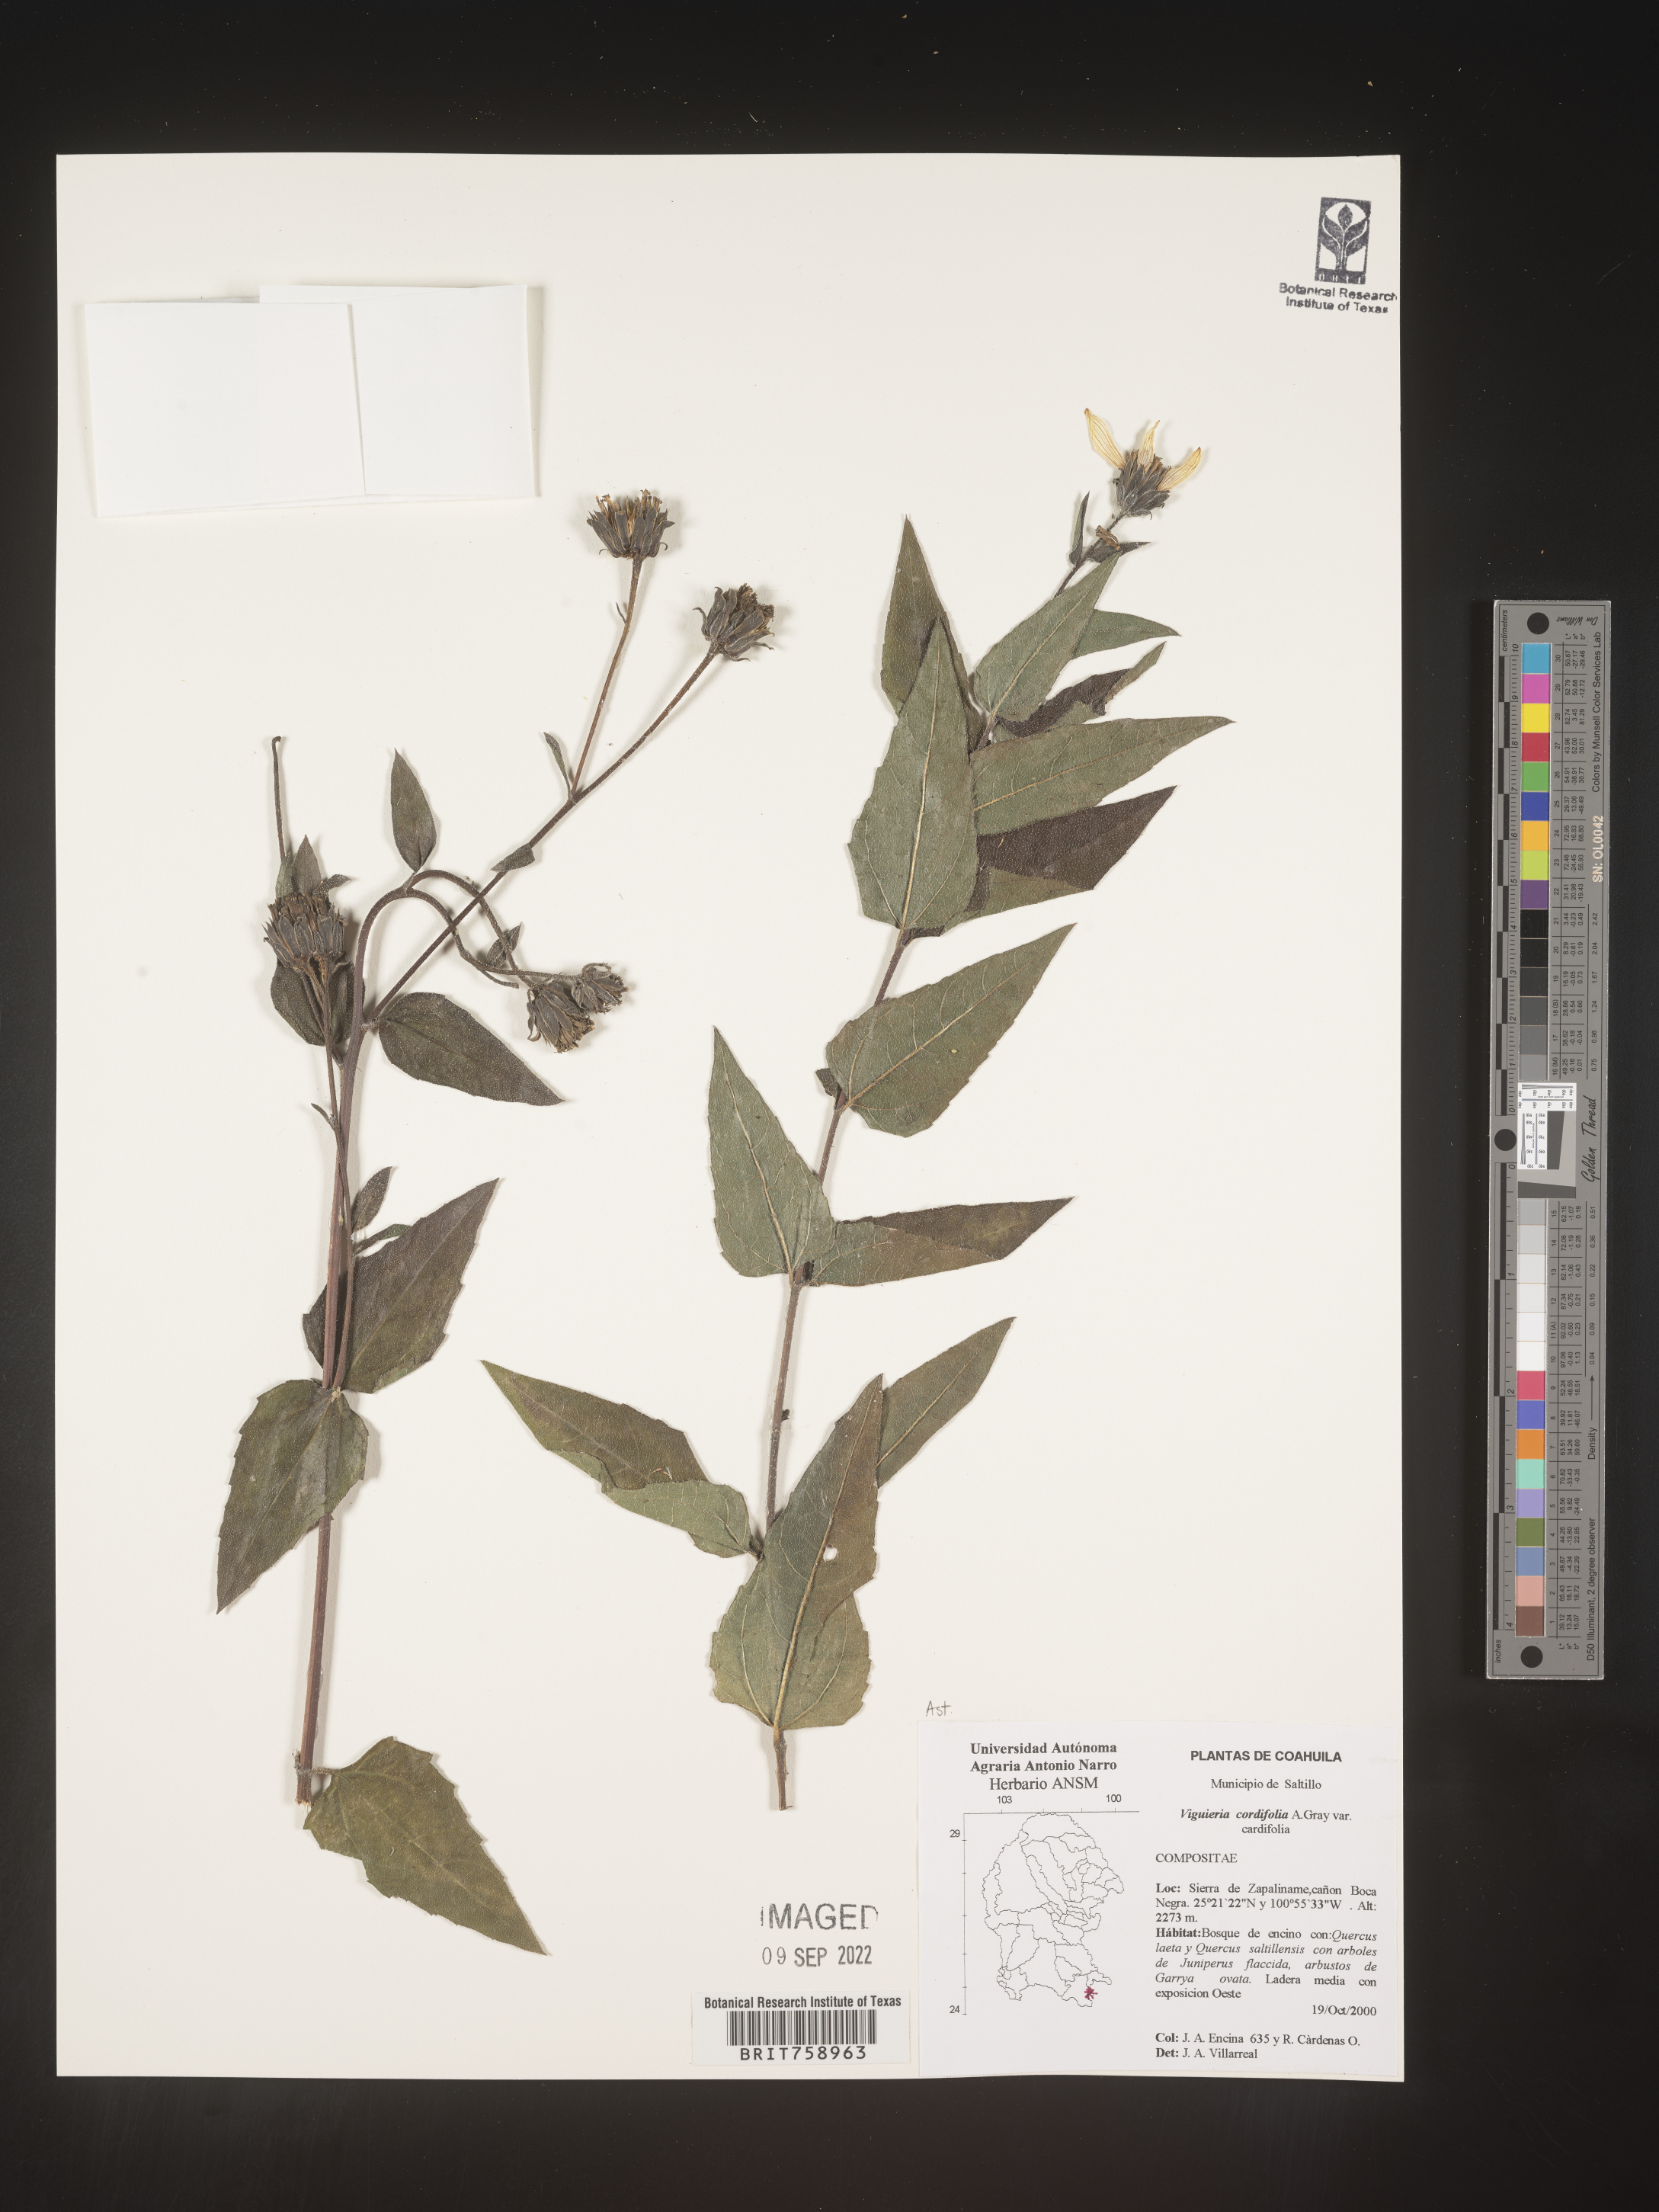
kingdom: Plantae
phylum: Tracheophyta
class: Magnoliopsida
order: Asterales
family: Asteraceae
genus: Viguiera
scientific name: Viguiera
